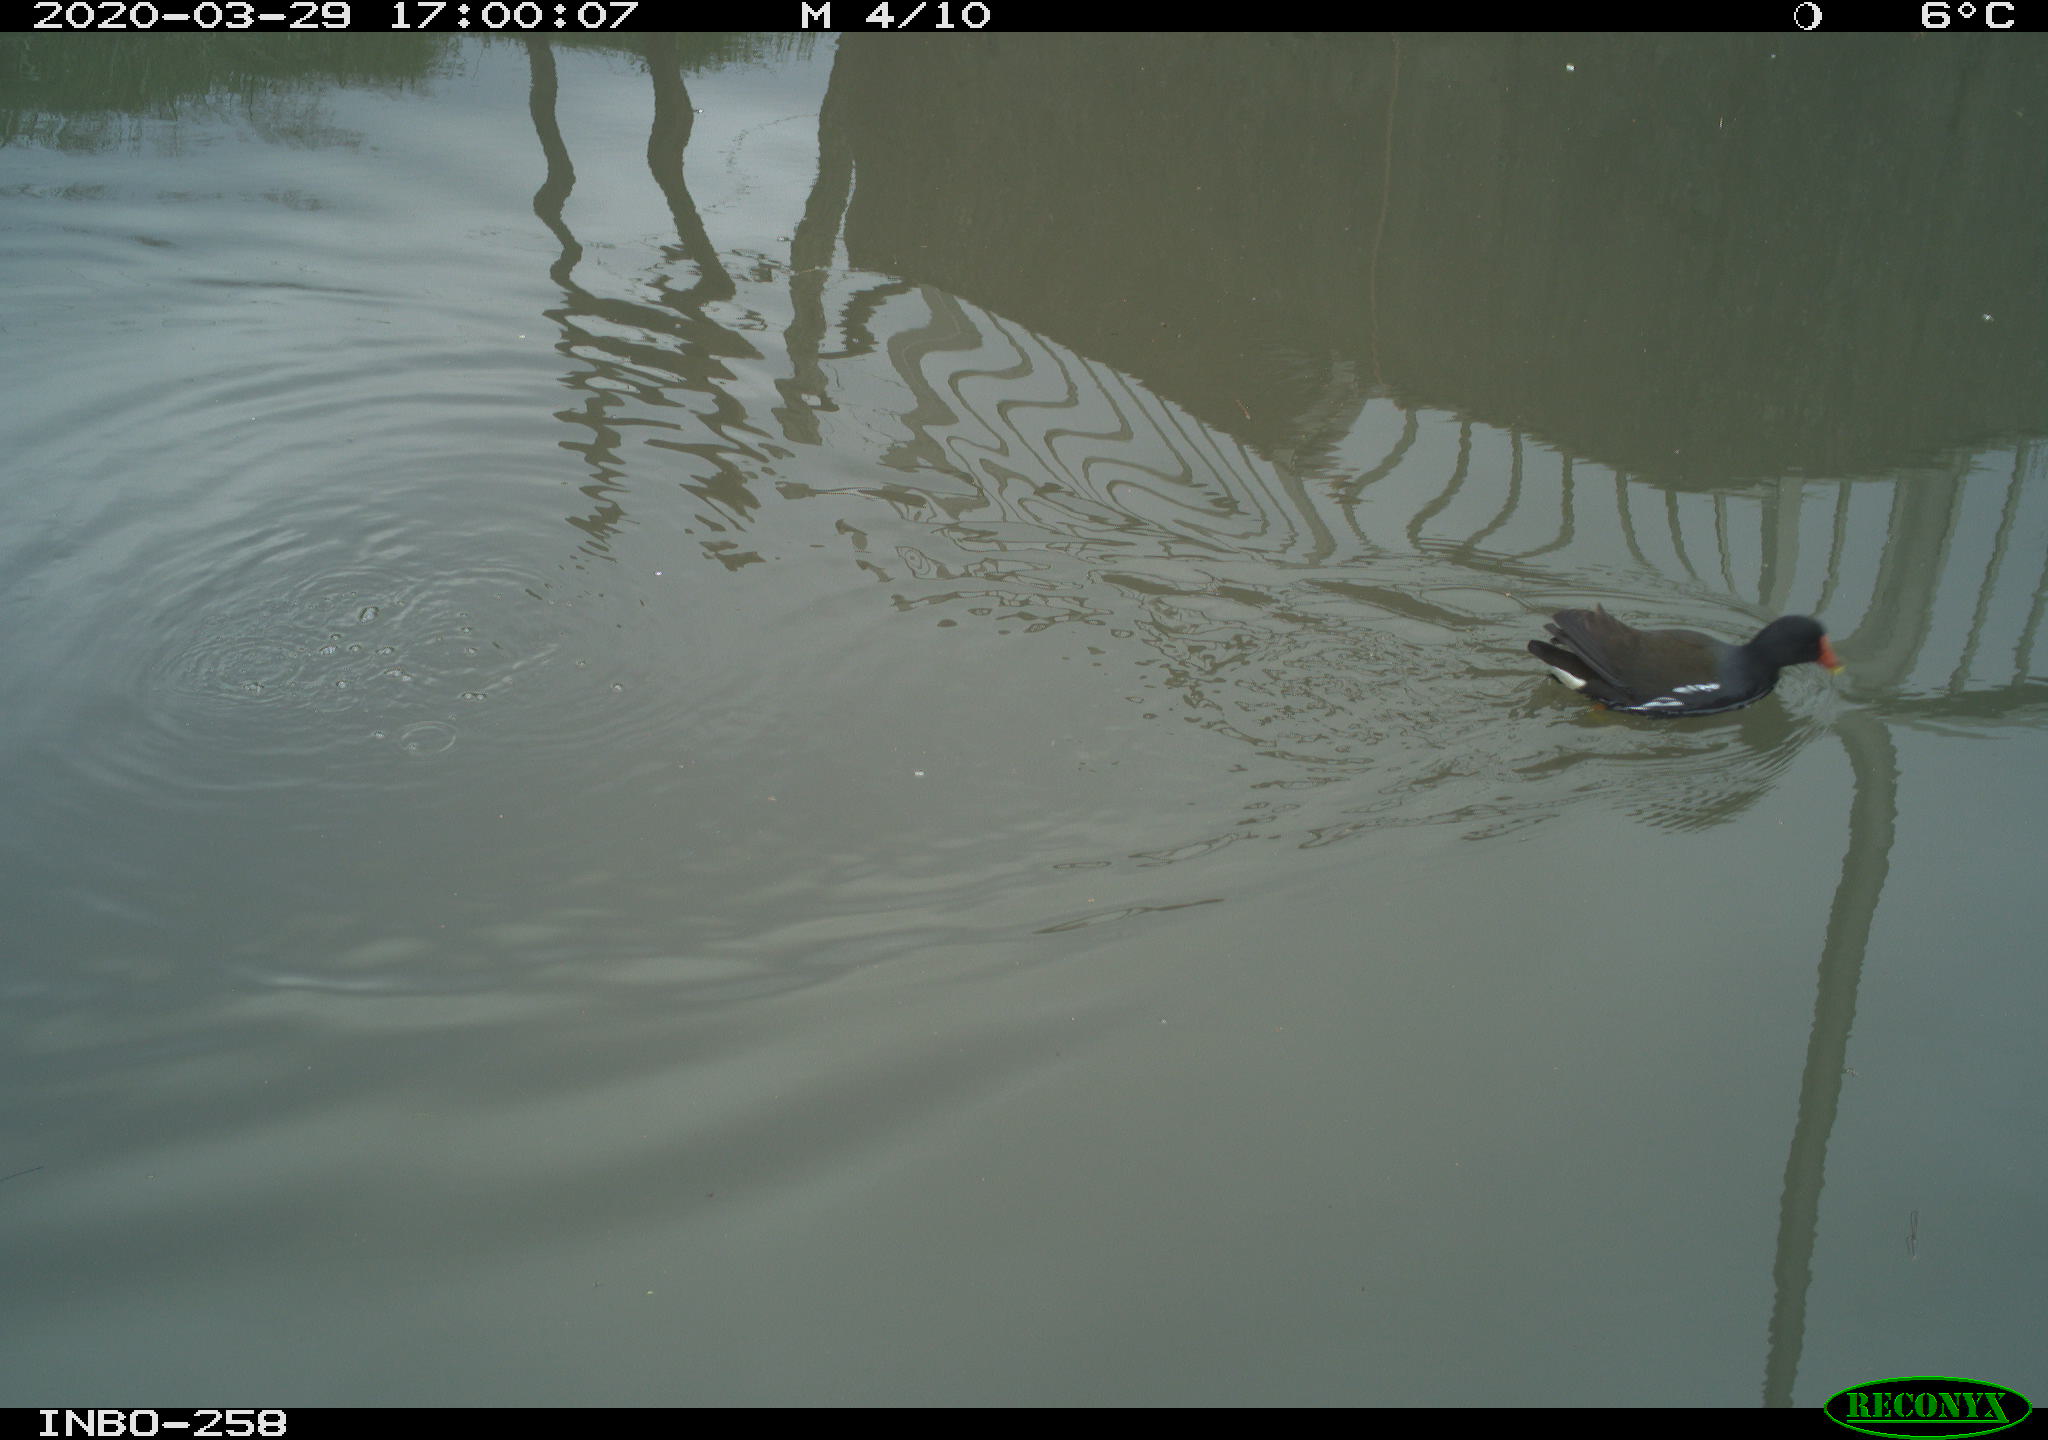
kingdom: Animalia
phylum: Chordata
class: Aves
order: Gruiformes
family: Rallidae
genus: Gallinula
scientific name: Gallinula chloropus
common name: Common moorhen
